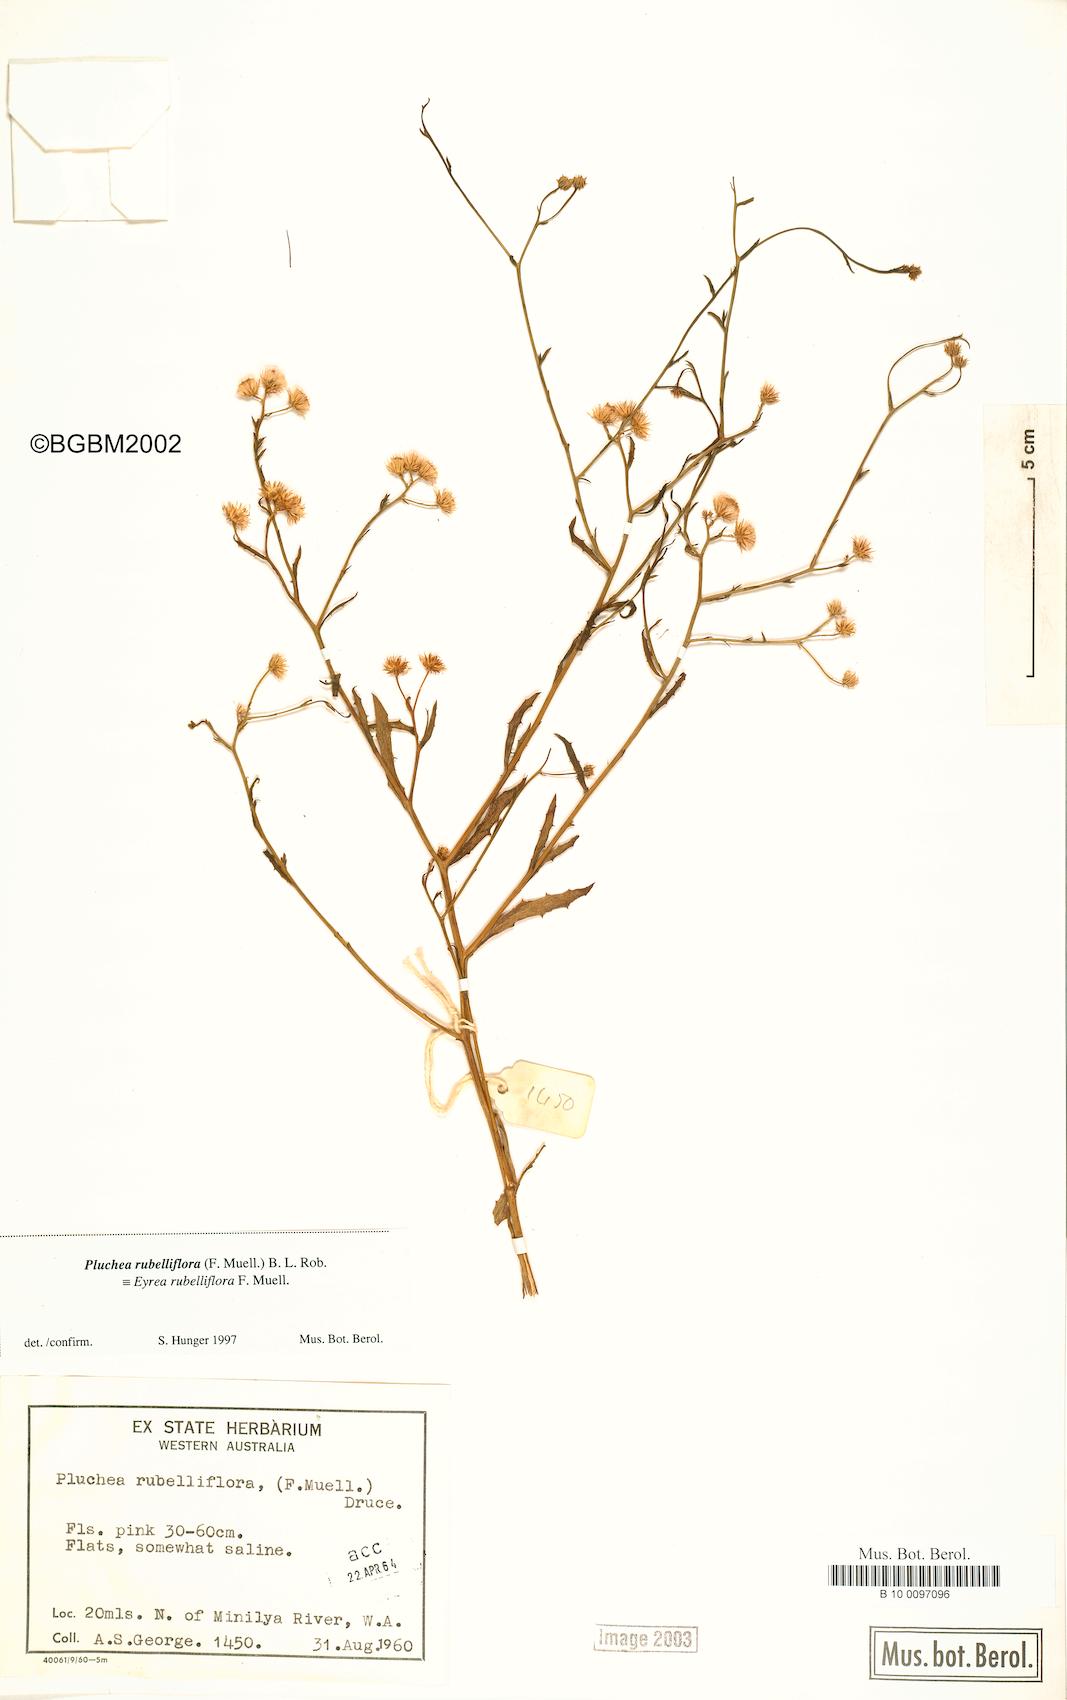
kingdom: Plantae
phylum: Tracheophyta
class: Magnoliopsida
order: Asterales
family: Asteraceae
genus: Pluchea
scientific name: Pluchea rubelliflora
